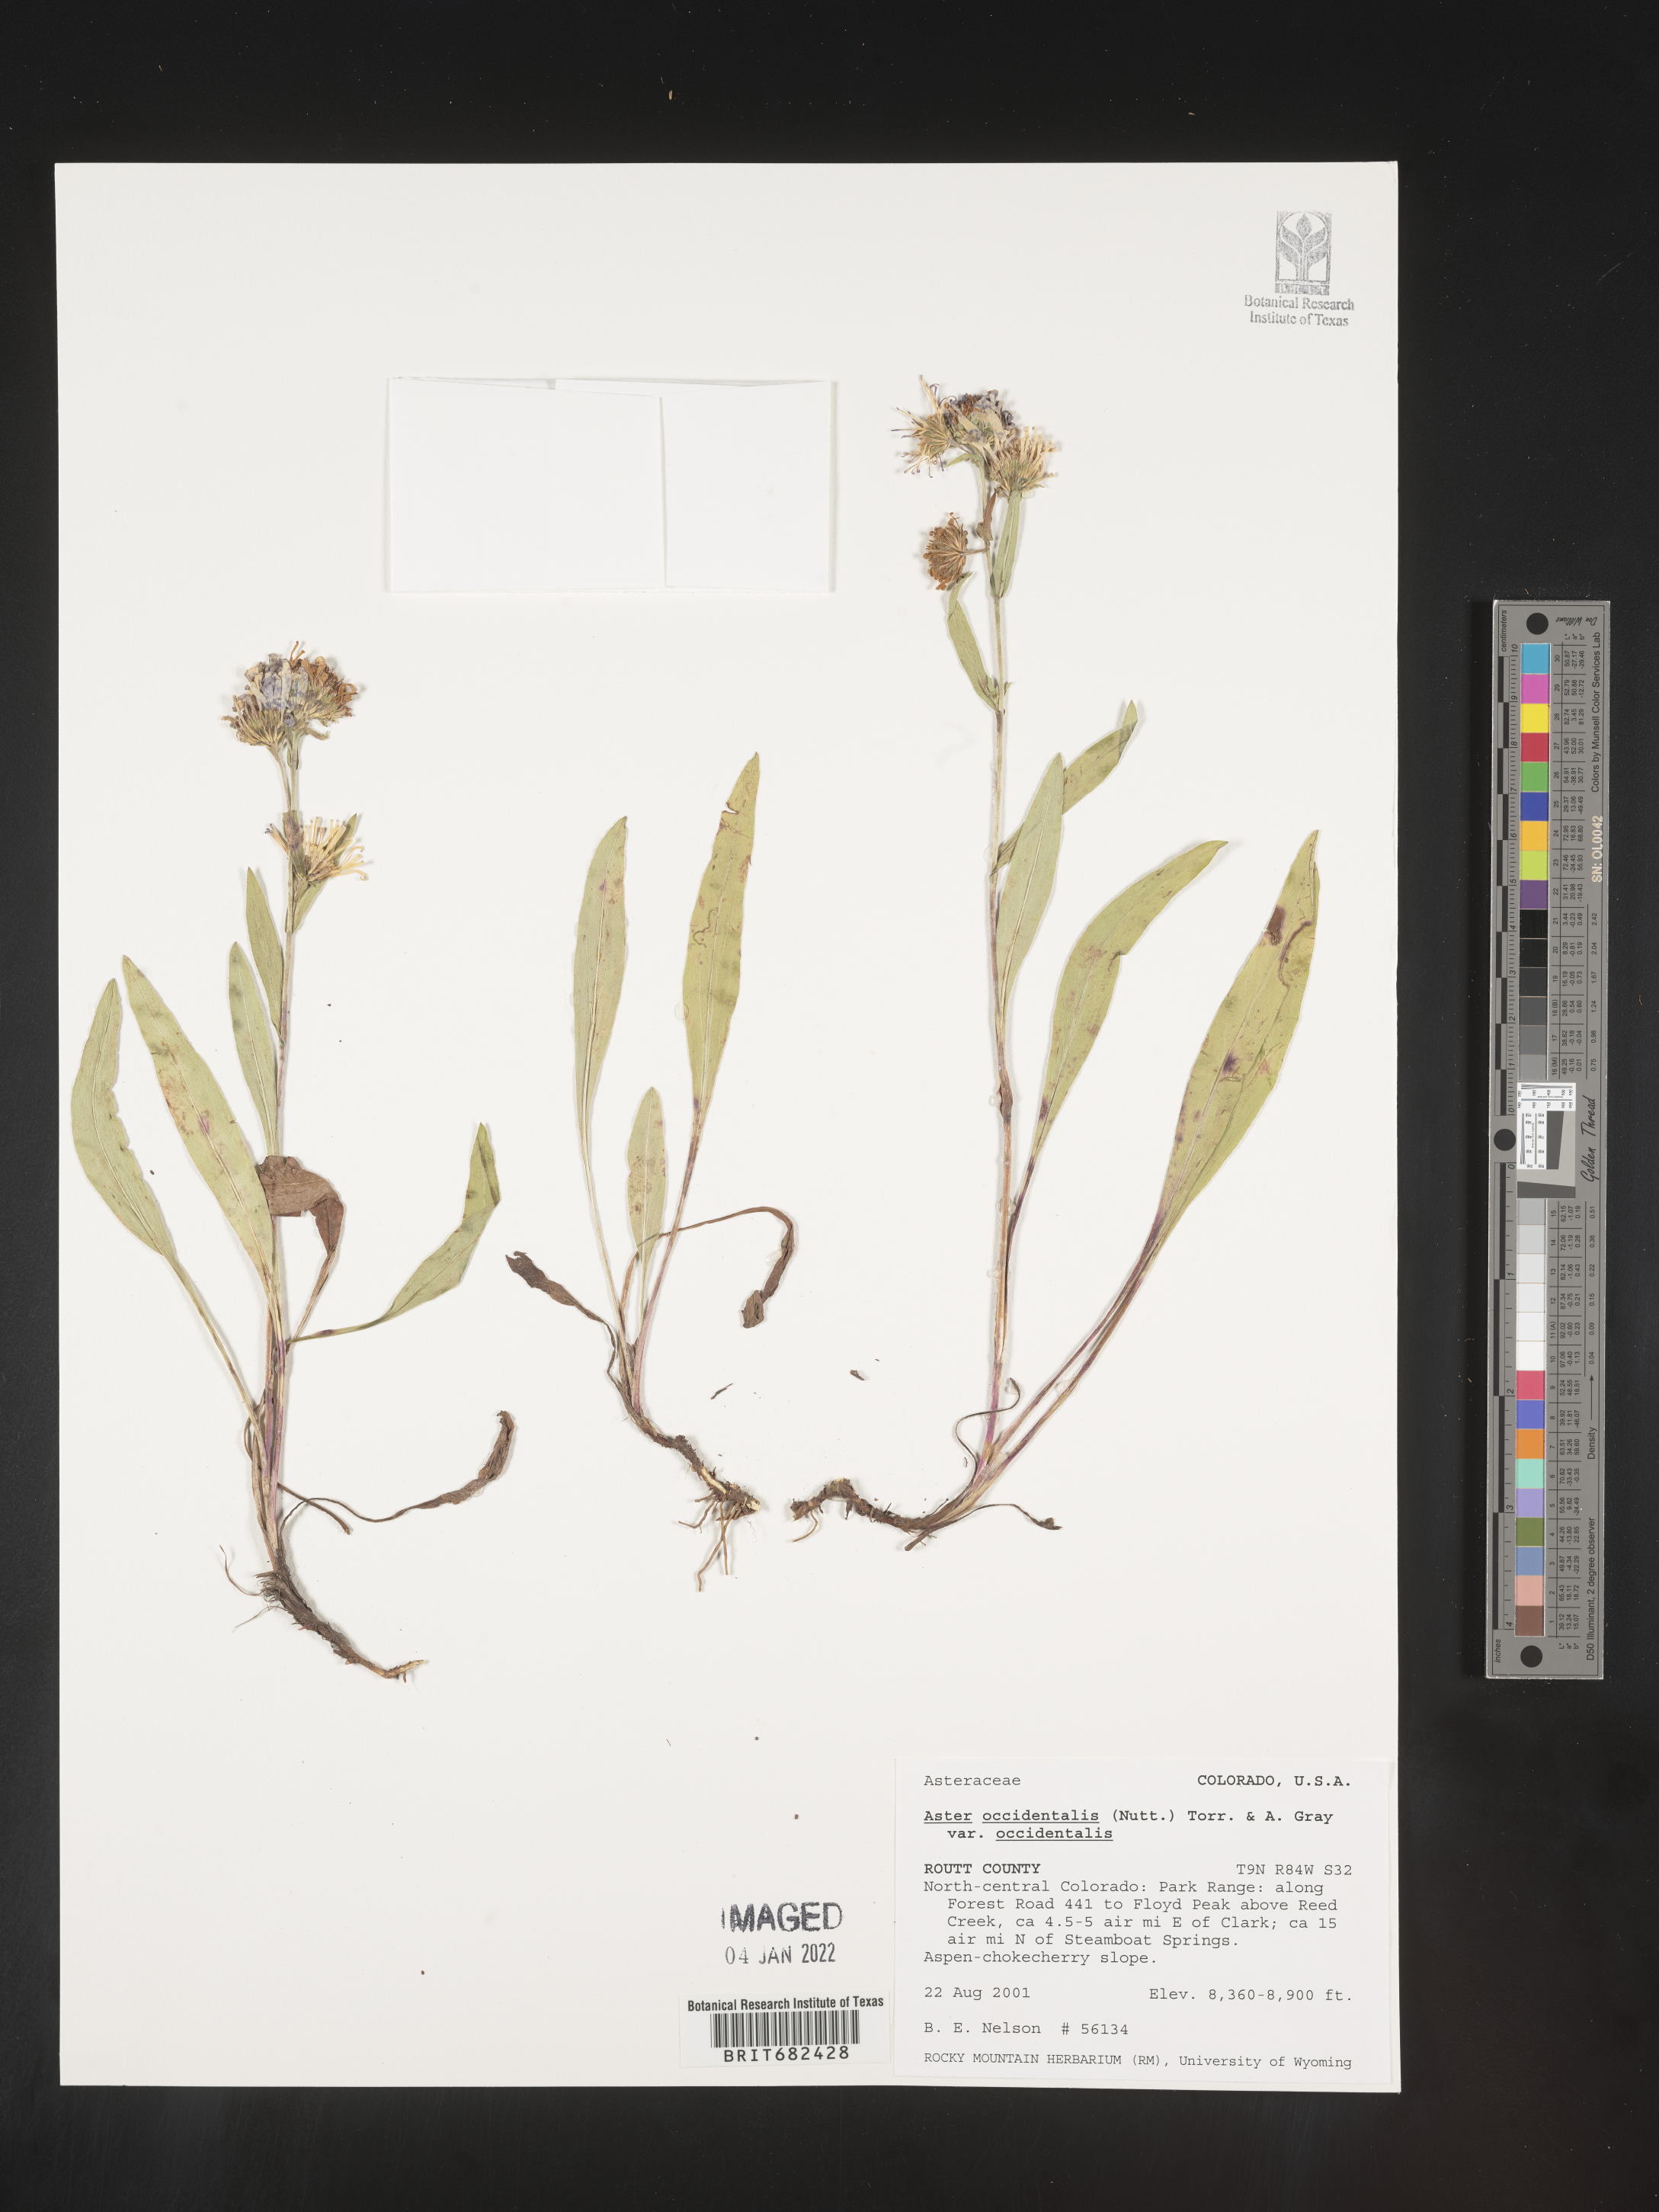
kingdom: Plantae
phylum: Tracheophyta
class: Magnoliopsida
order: Asterales
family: Asteraceae
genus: Aster
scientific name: Aster
